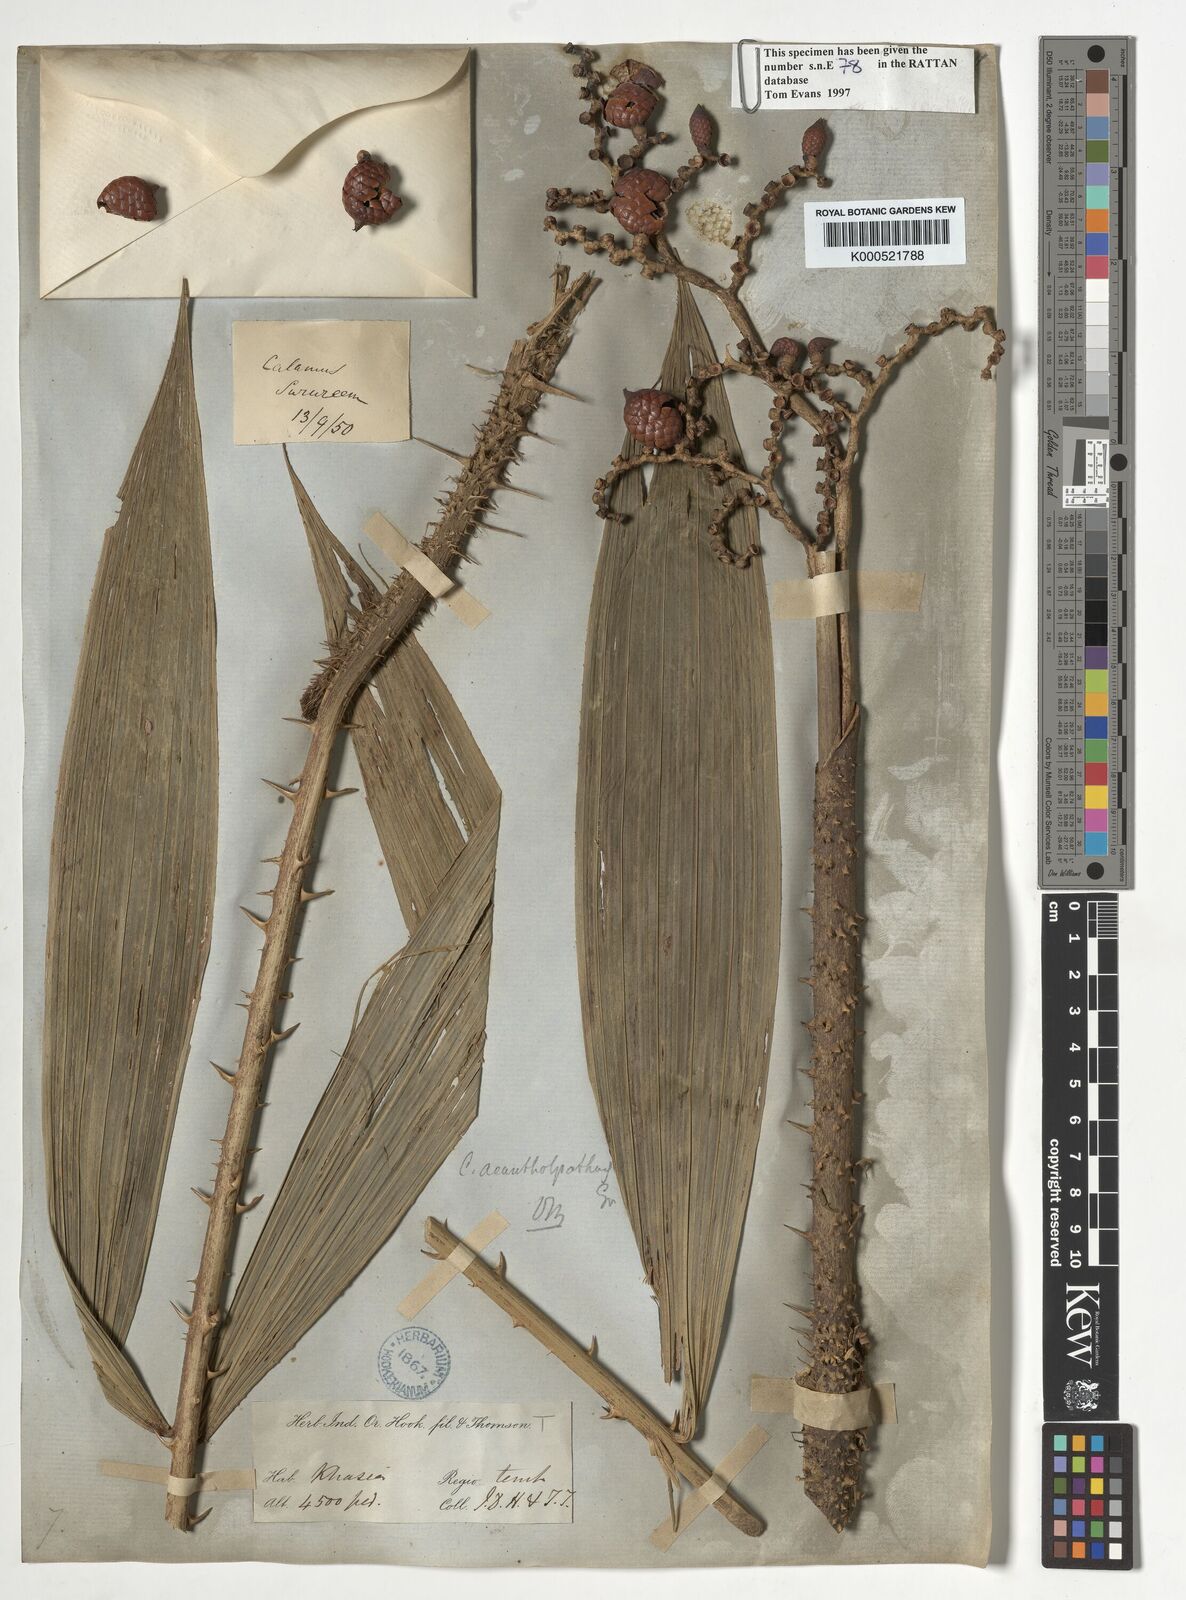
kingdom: Plantae
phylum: Tracheophyta
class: Liliopsida
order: Arecales
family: Arecaceae
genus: Calamus
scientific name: Calamus acanthospathus
